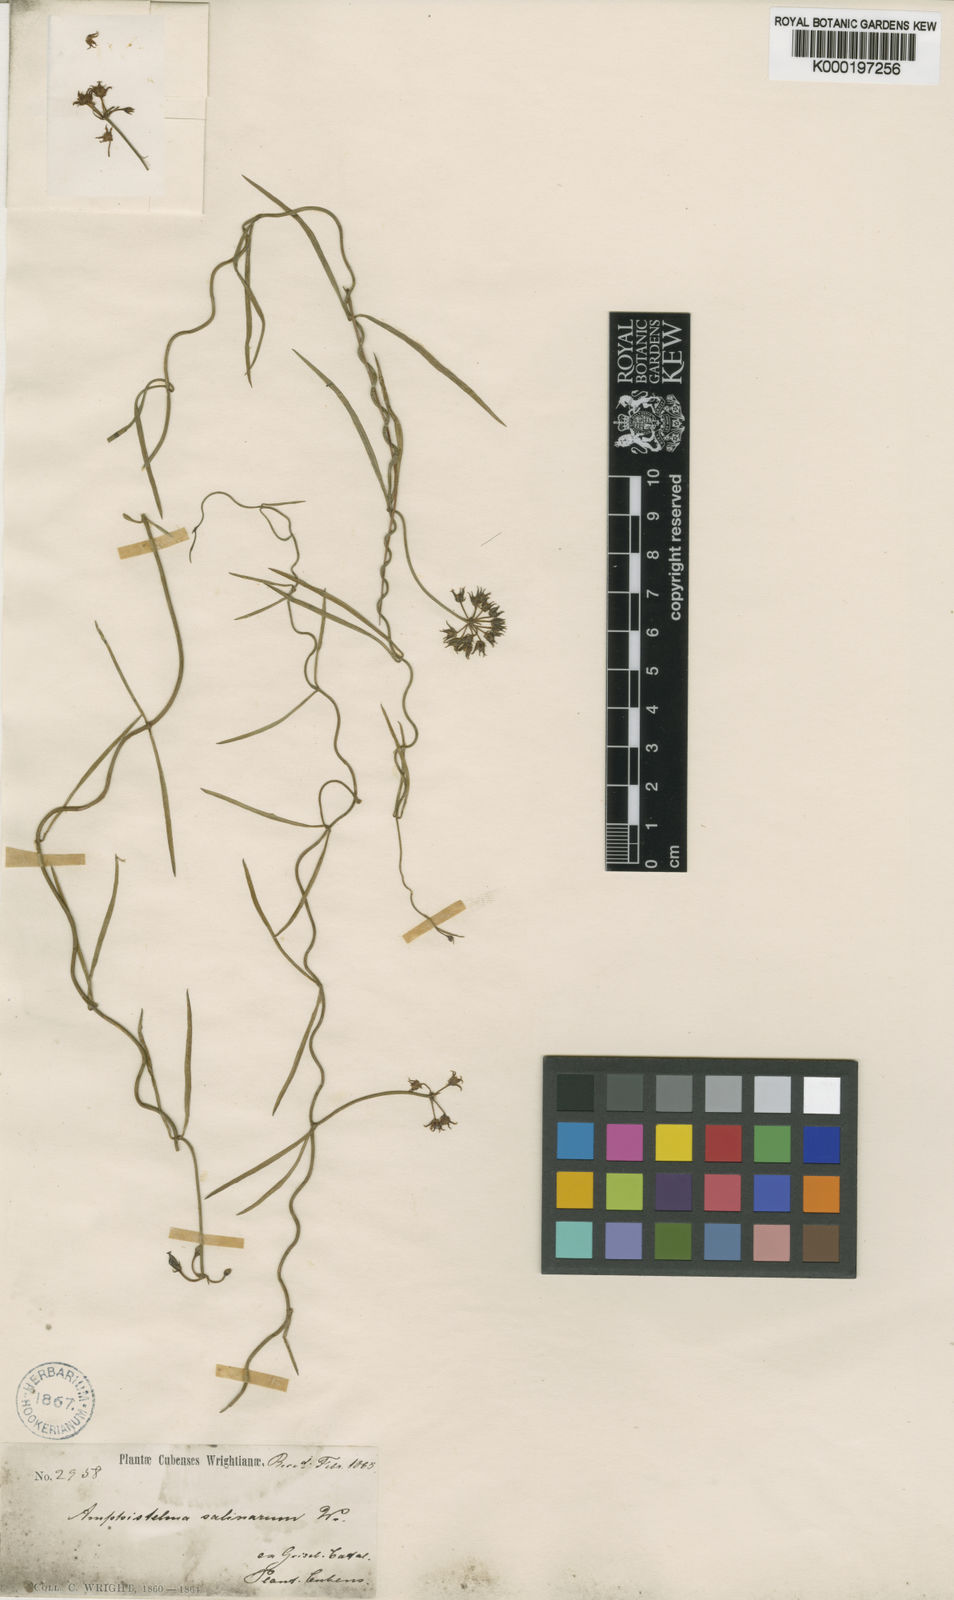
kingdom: Plantae
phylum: Tracheophyta
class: Magnoliopsida
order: Gentianales
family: Apocynaceae
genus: Pattalias
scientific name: Pattalias palustris
